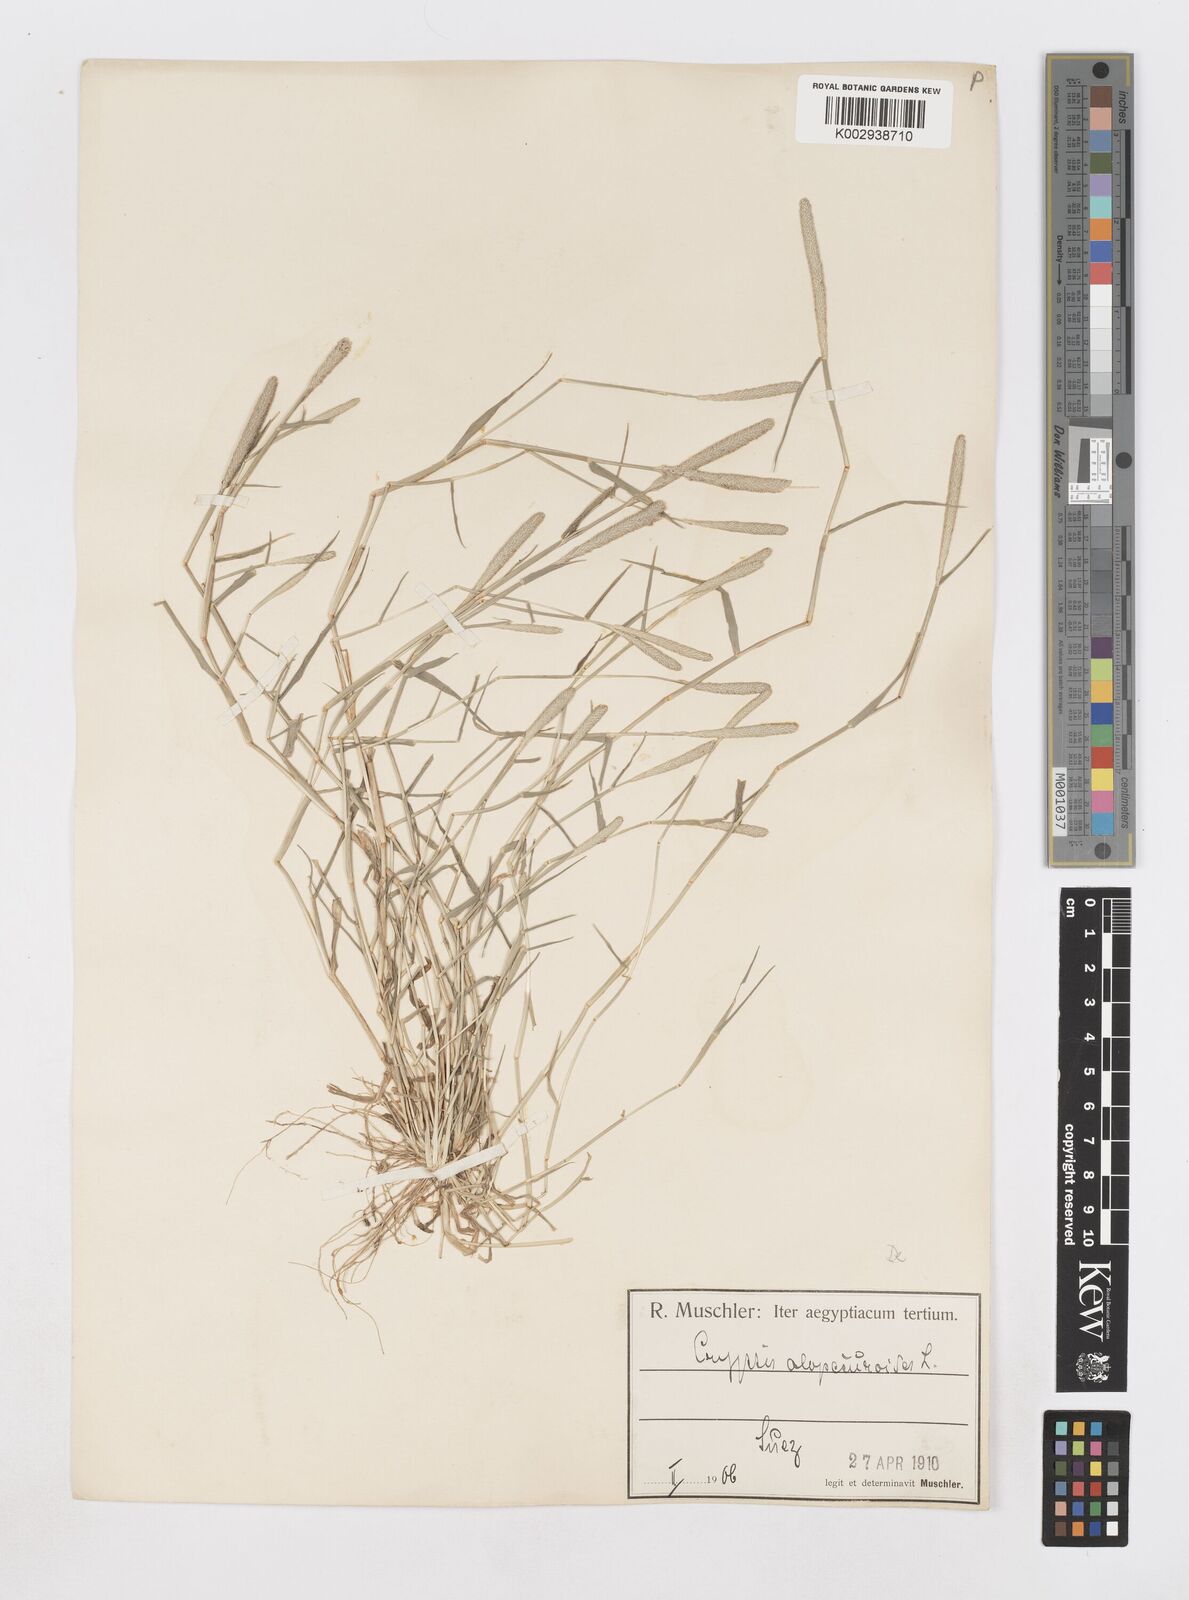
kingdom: Plantae
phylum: Tracheophyta
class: Liliopsida
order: Poales
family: Poaceae
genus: Sporobolus
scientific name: Sporobolus alopecuroides
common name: Foxtail pricklegrass
